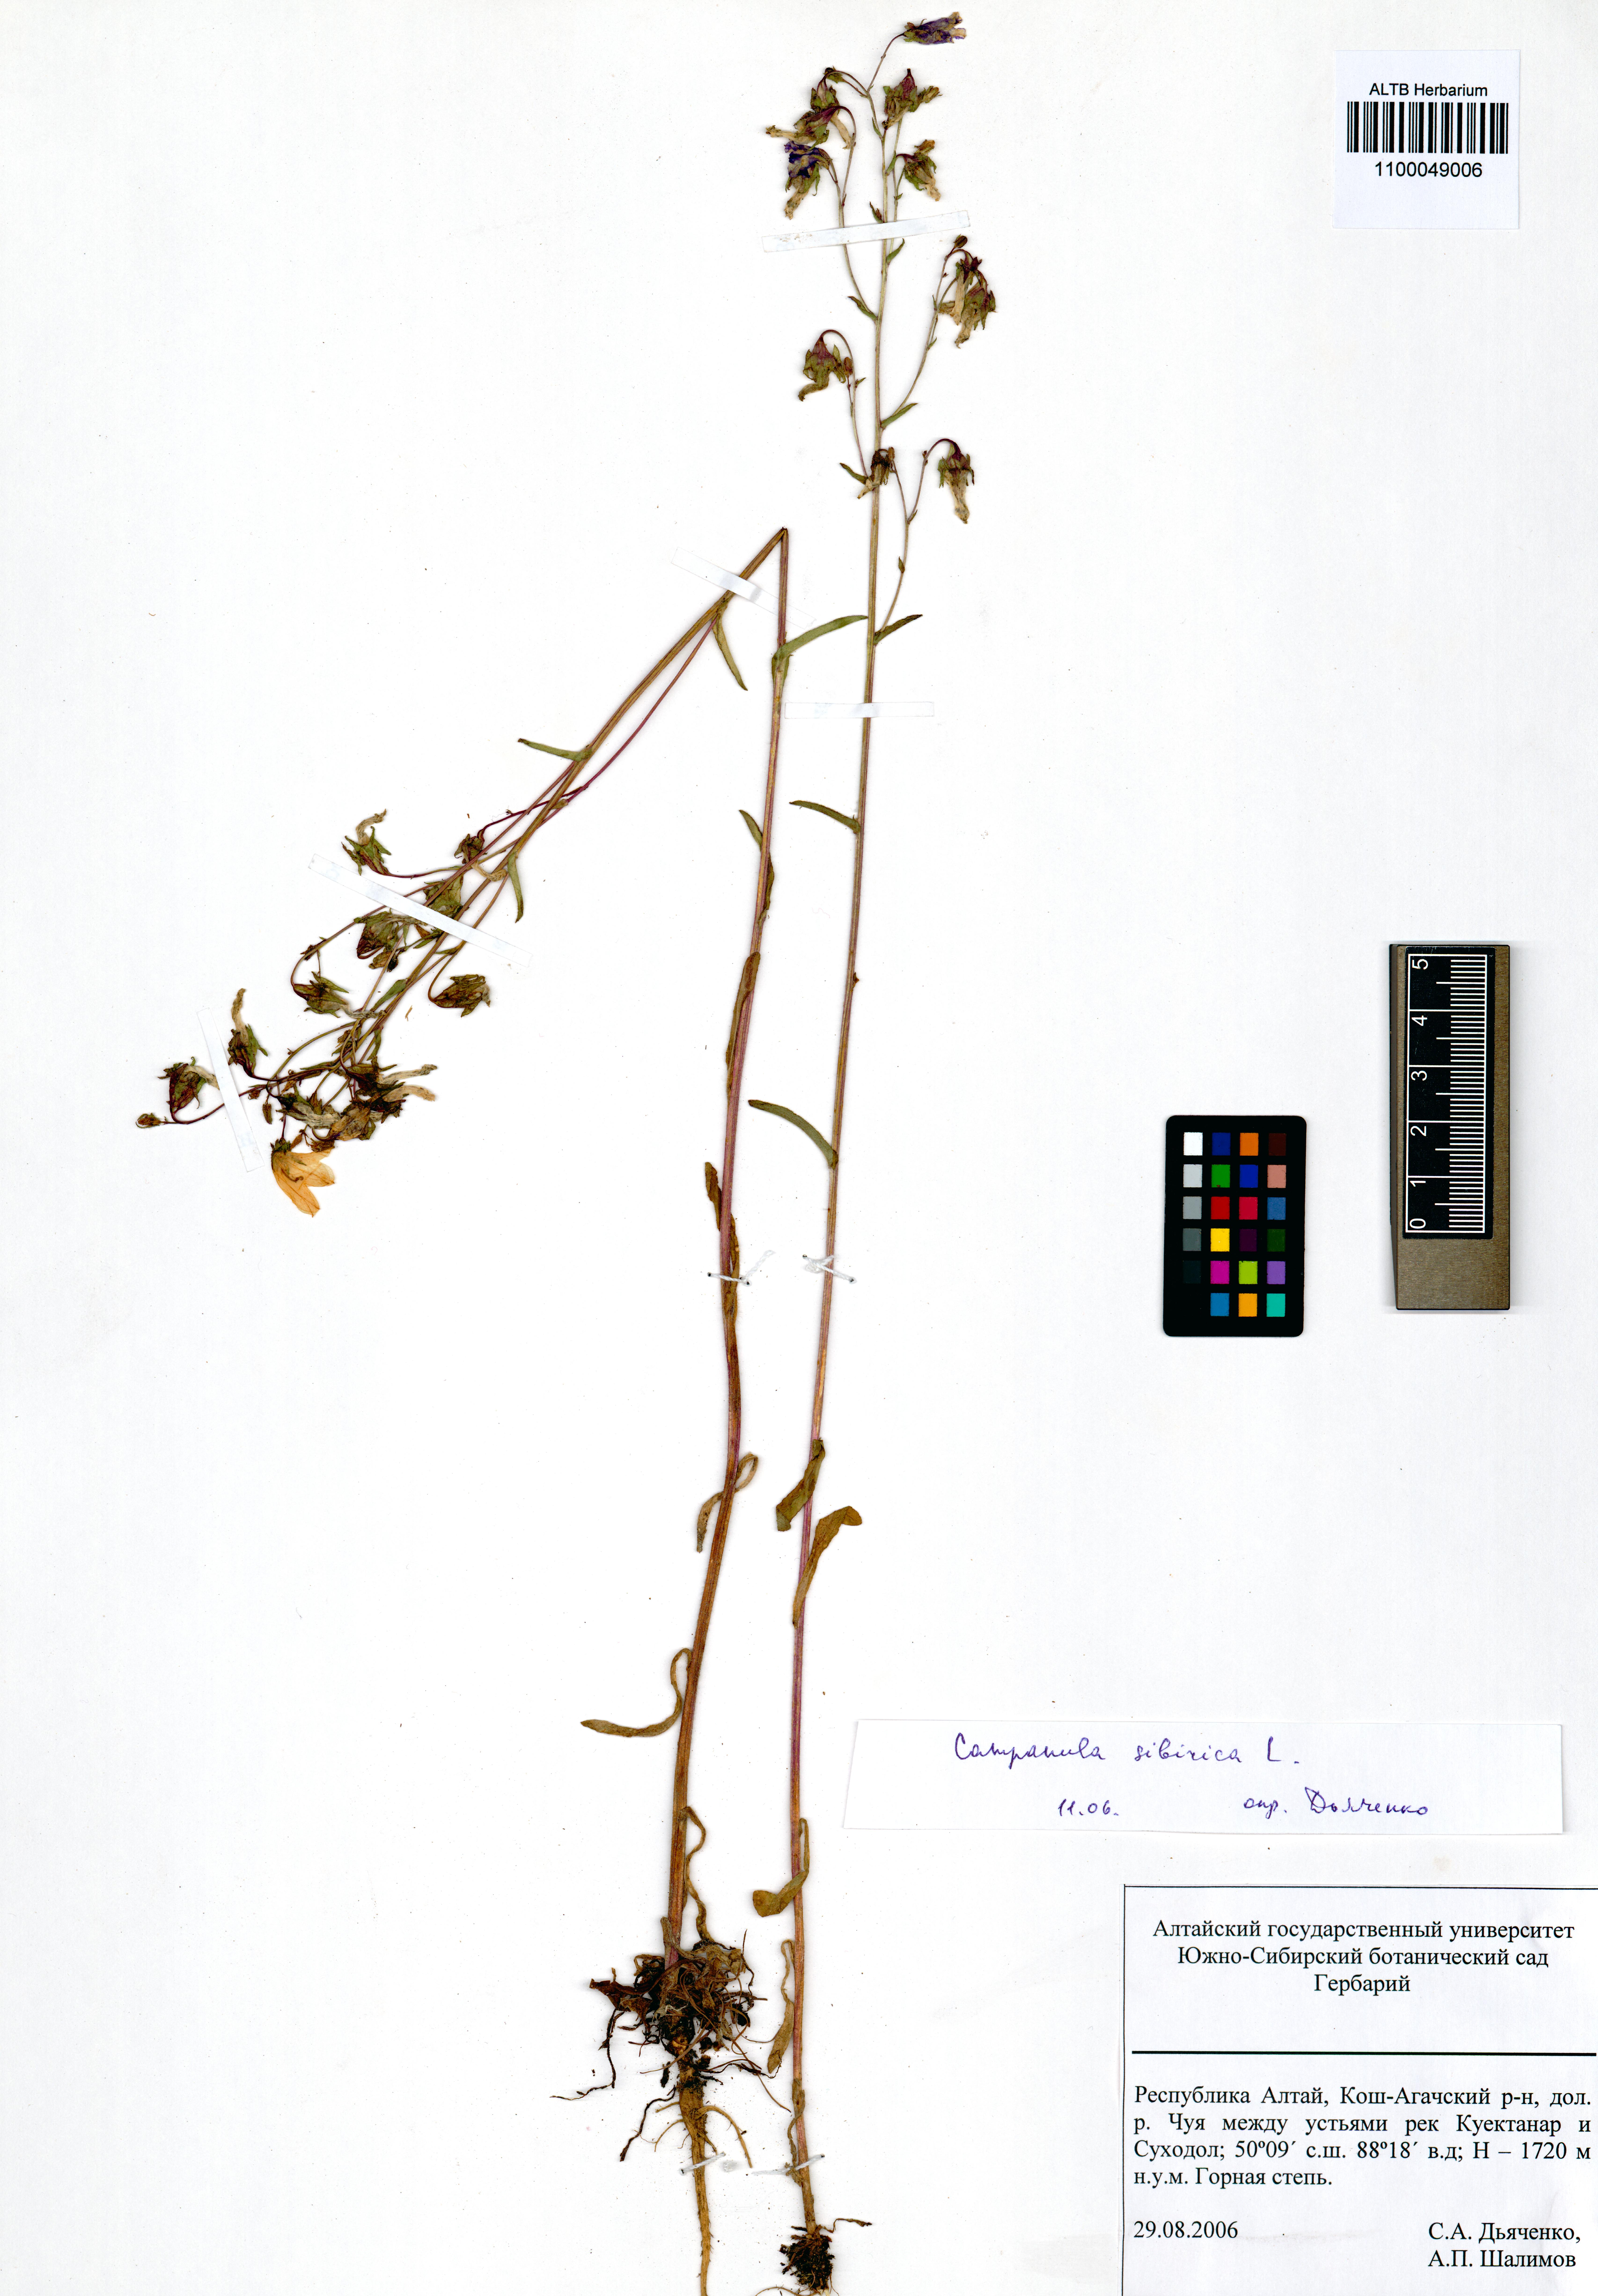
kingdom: Plantae
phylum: Tracheophyta
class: Magnoliopsida
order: Asterales
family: Campanulaceae
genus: Campanula
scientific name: Campanula sibirica
